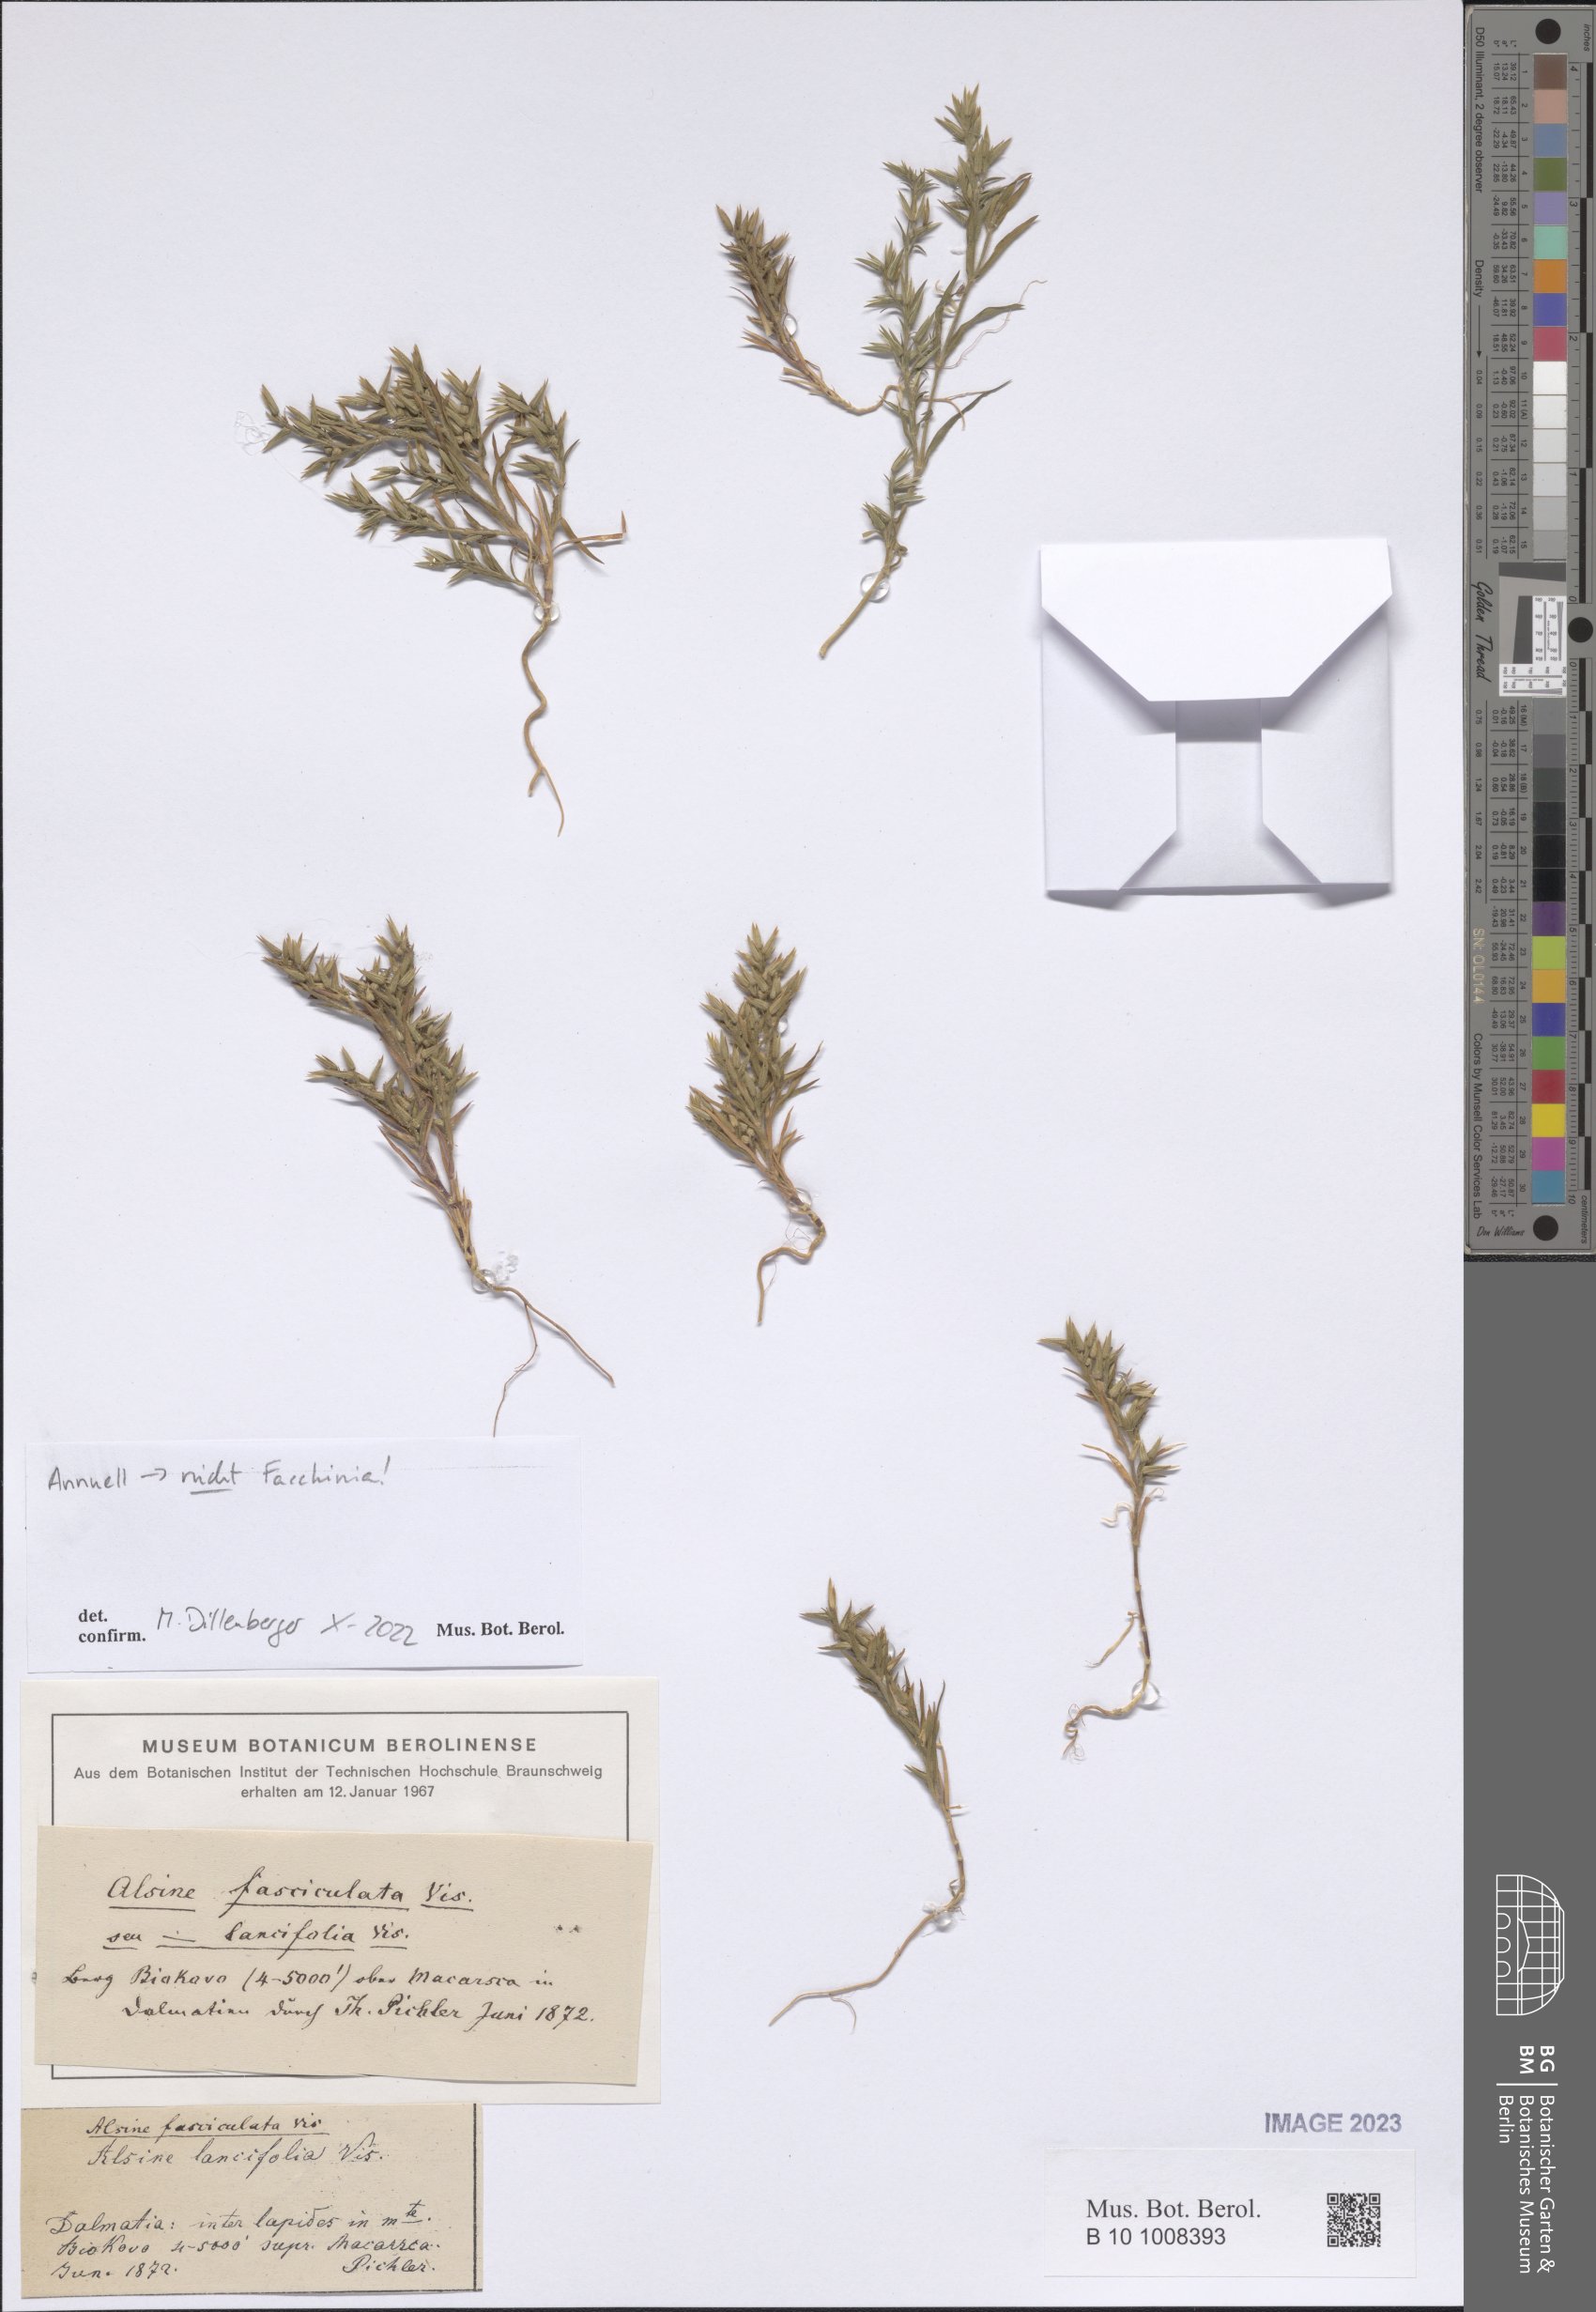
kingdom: Plantae
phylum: Tracheophyta
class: Magnoliopsida
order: Caryophyllales
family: Caryophyllaceae
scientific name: Caryophyllaceae
